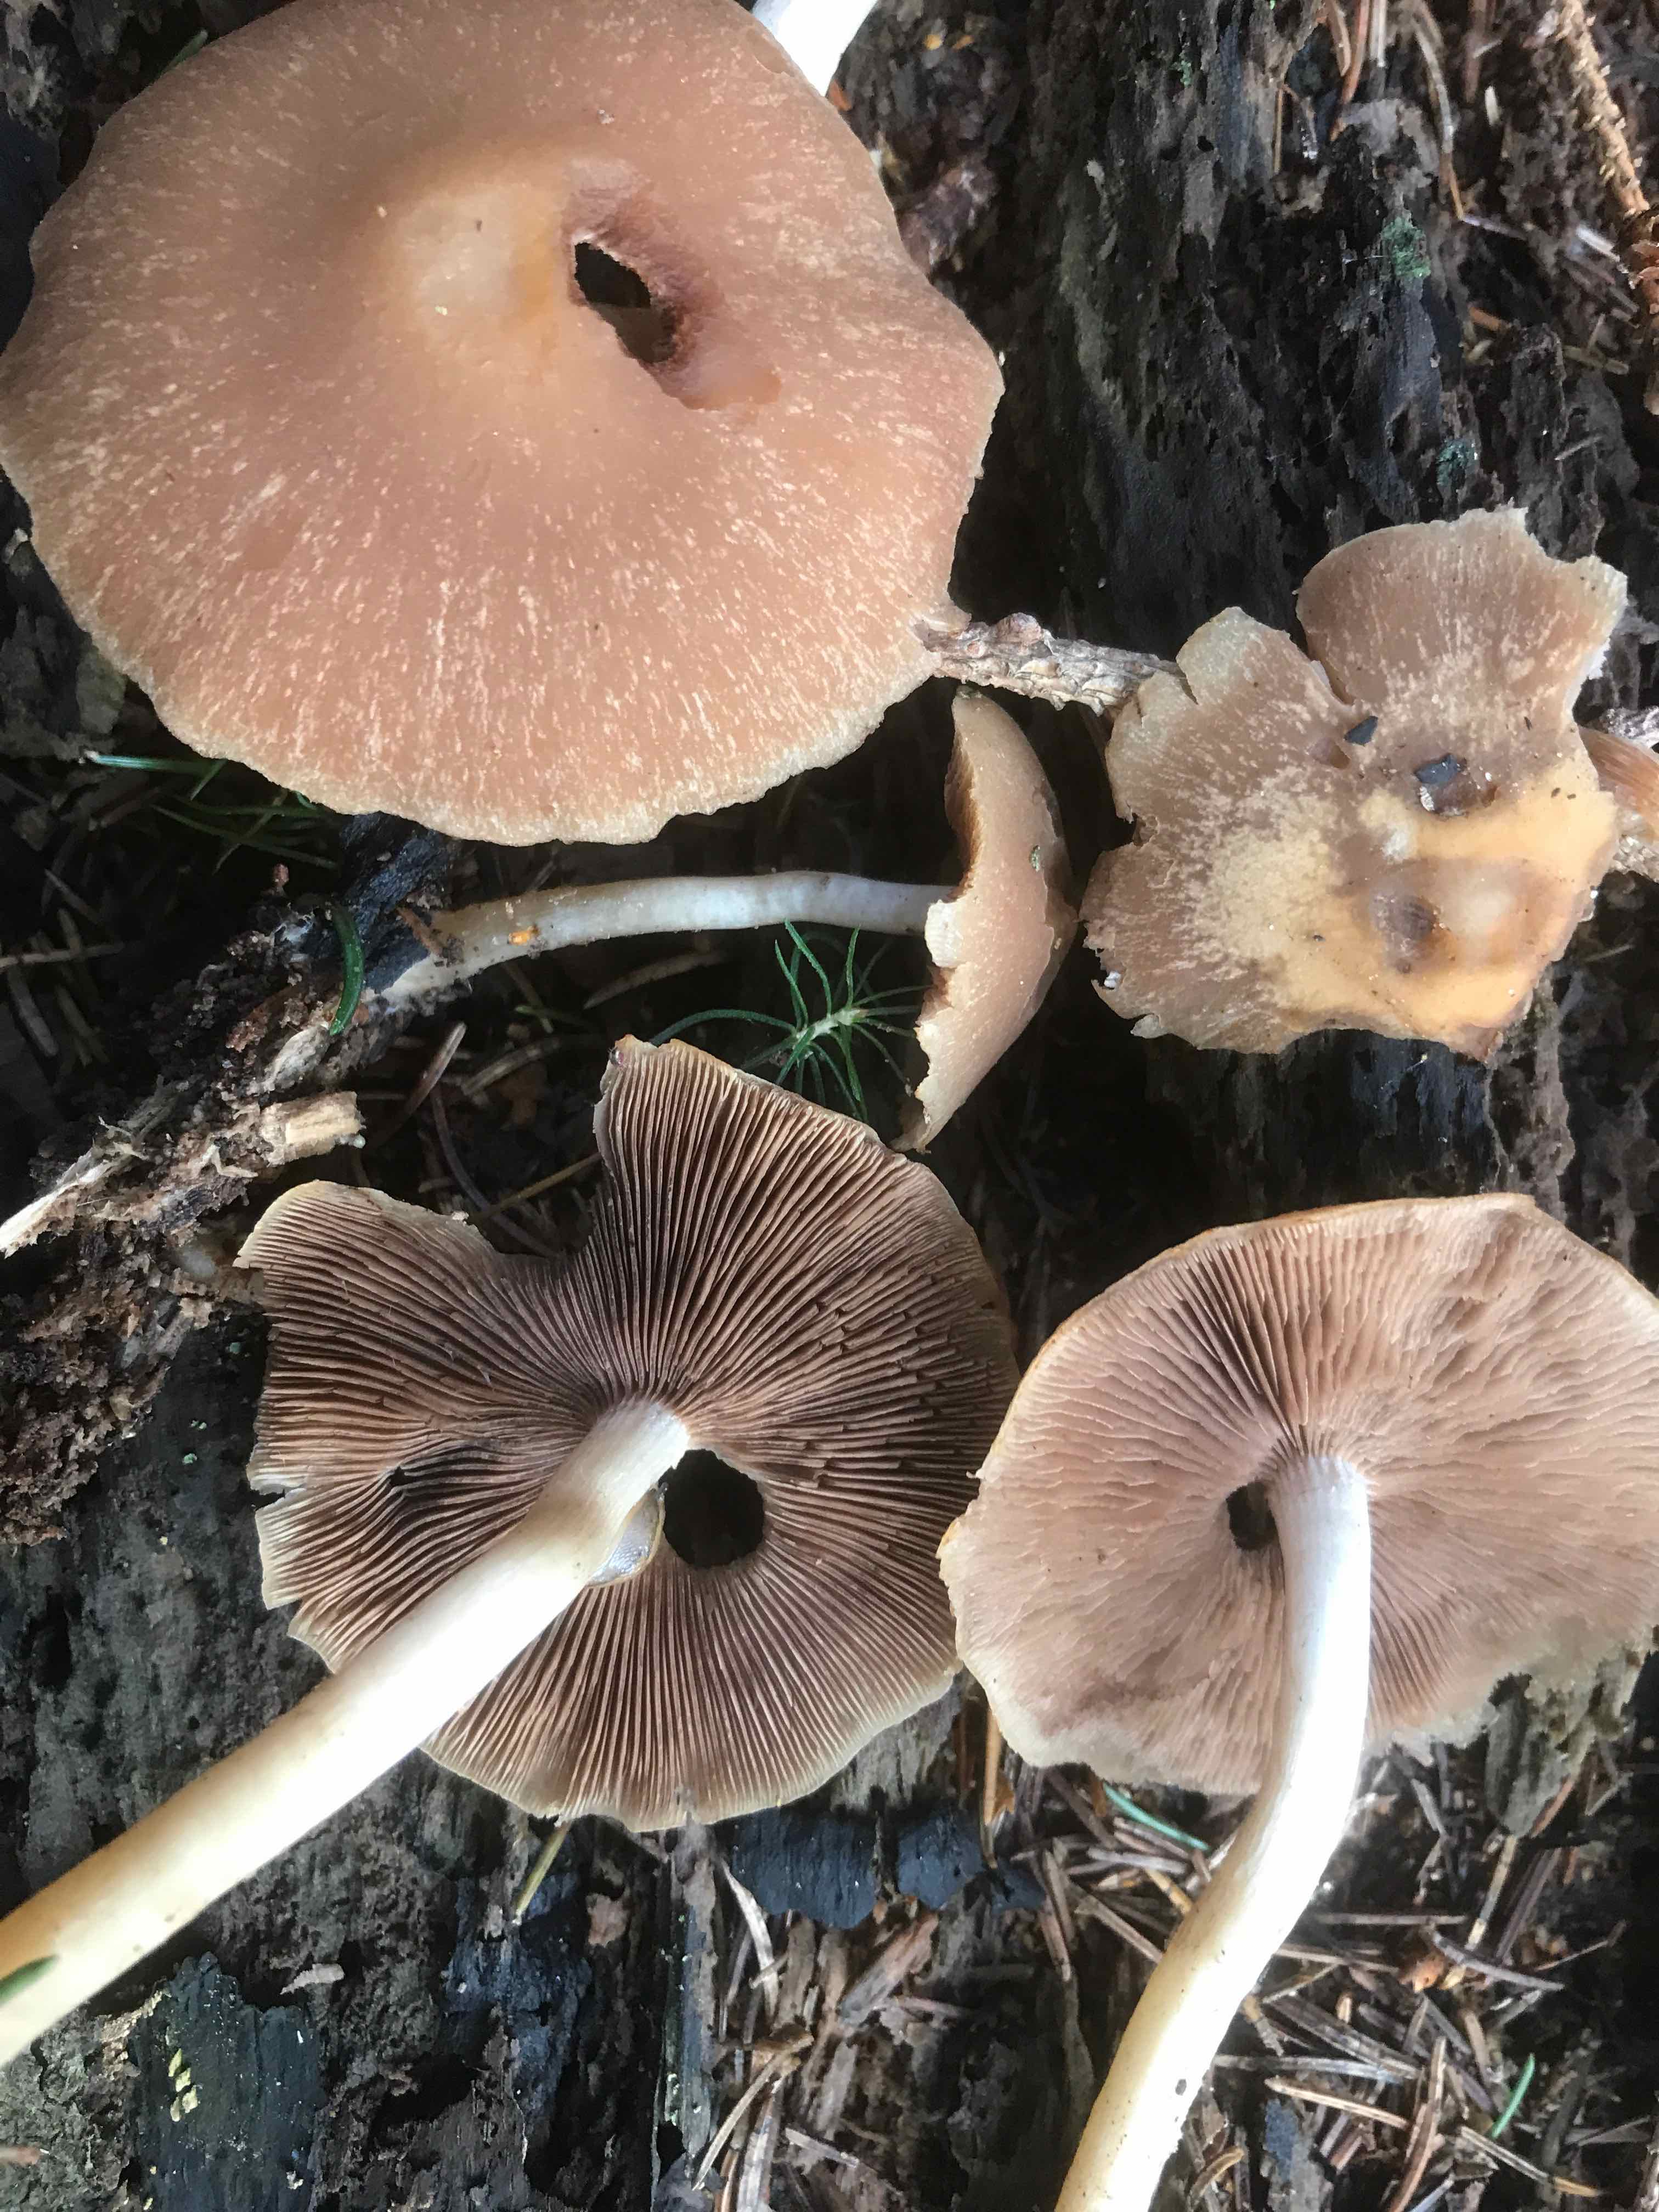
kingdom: Fungi
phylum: Basidiomycota
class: Agaricomycetes
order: Agaricales
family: Psathyrellaceae
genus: Psathyrella
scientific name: Psathyrella
